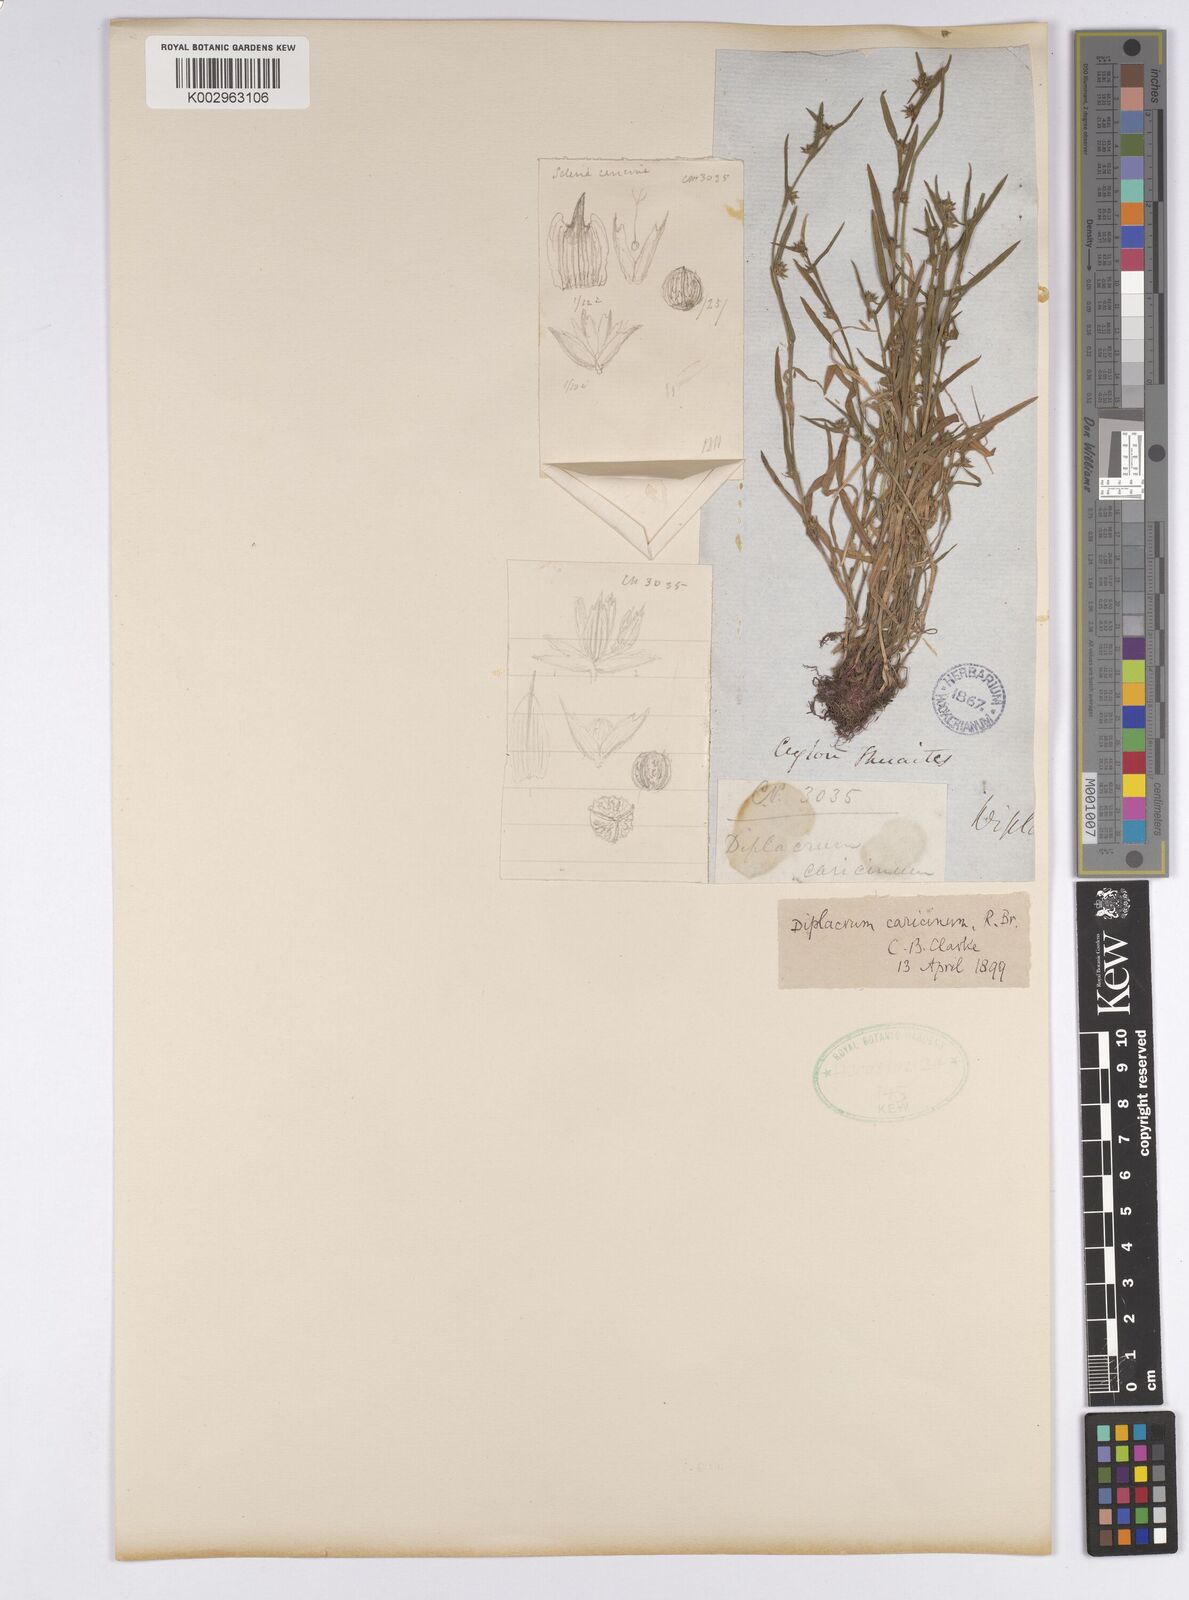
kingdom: Plantae
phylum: Tracheophyta
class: Liliopsida
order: Poales
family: Cyperaceae
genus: Diplacrum
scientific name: Diplacrum caricinum
